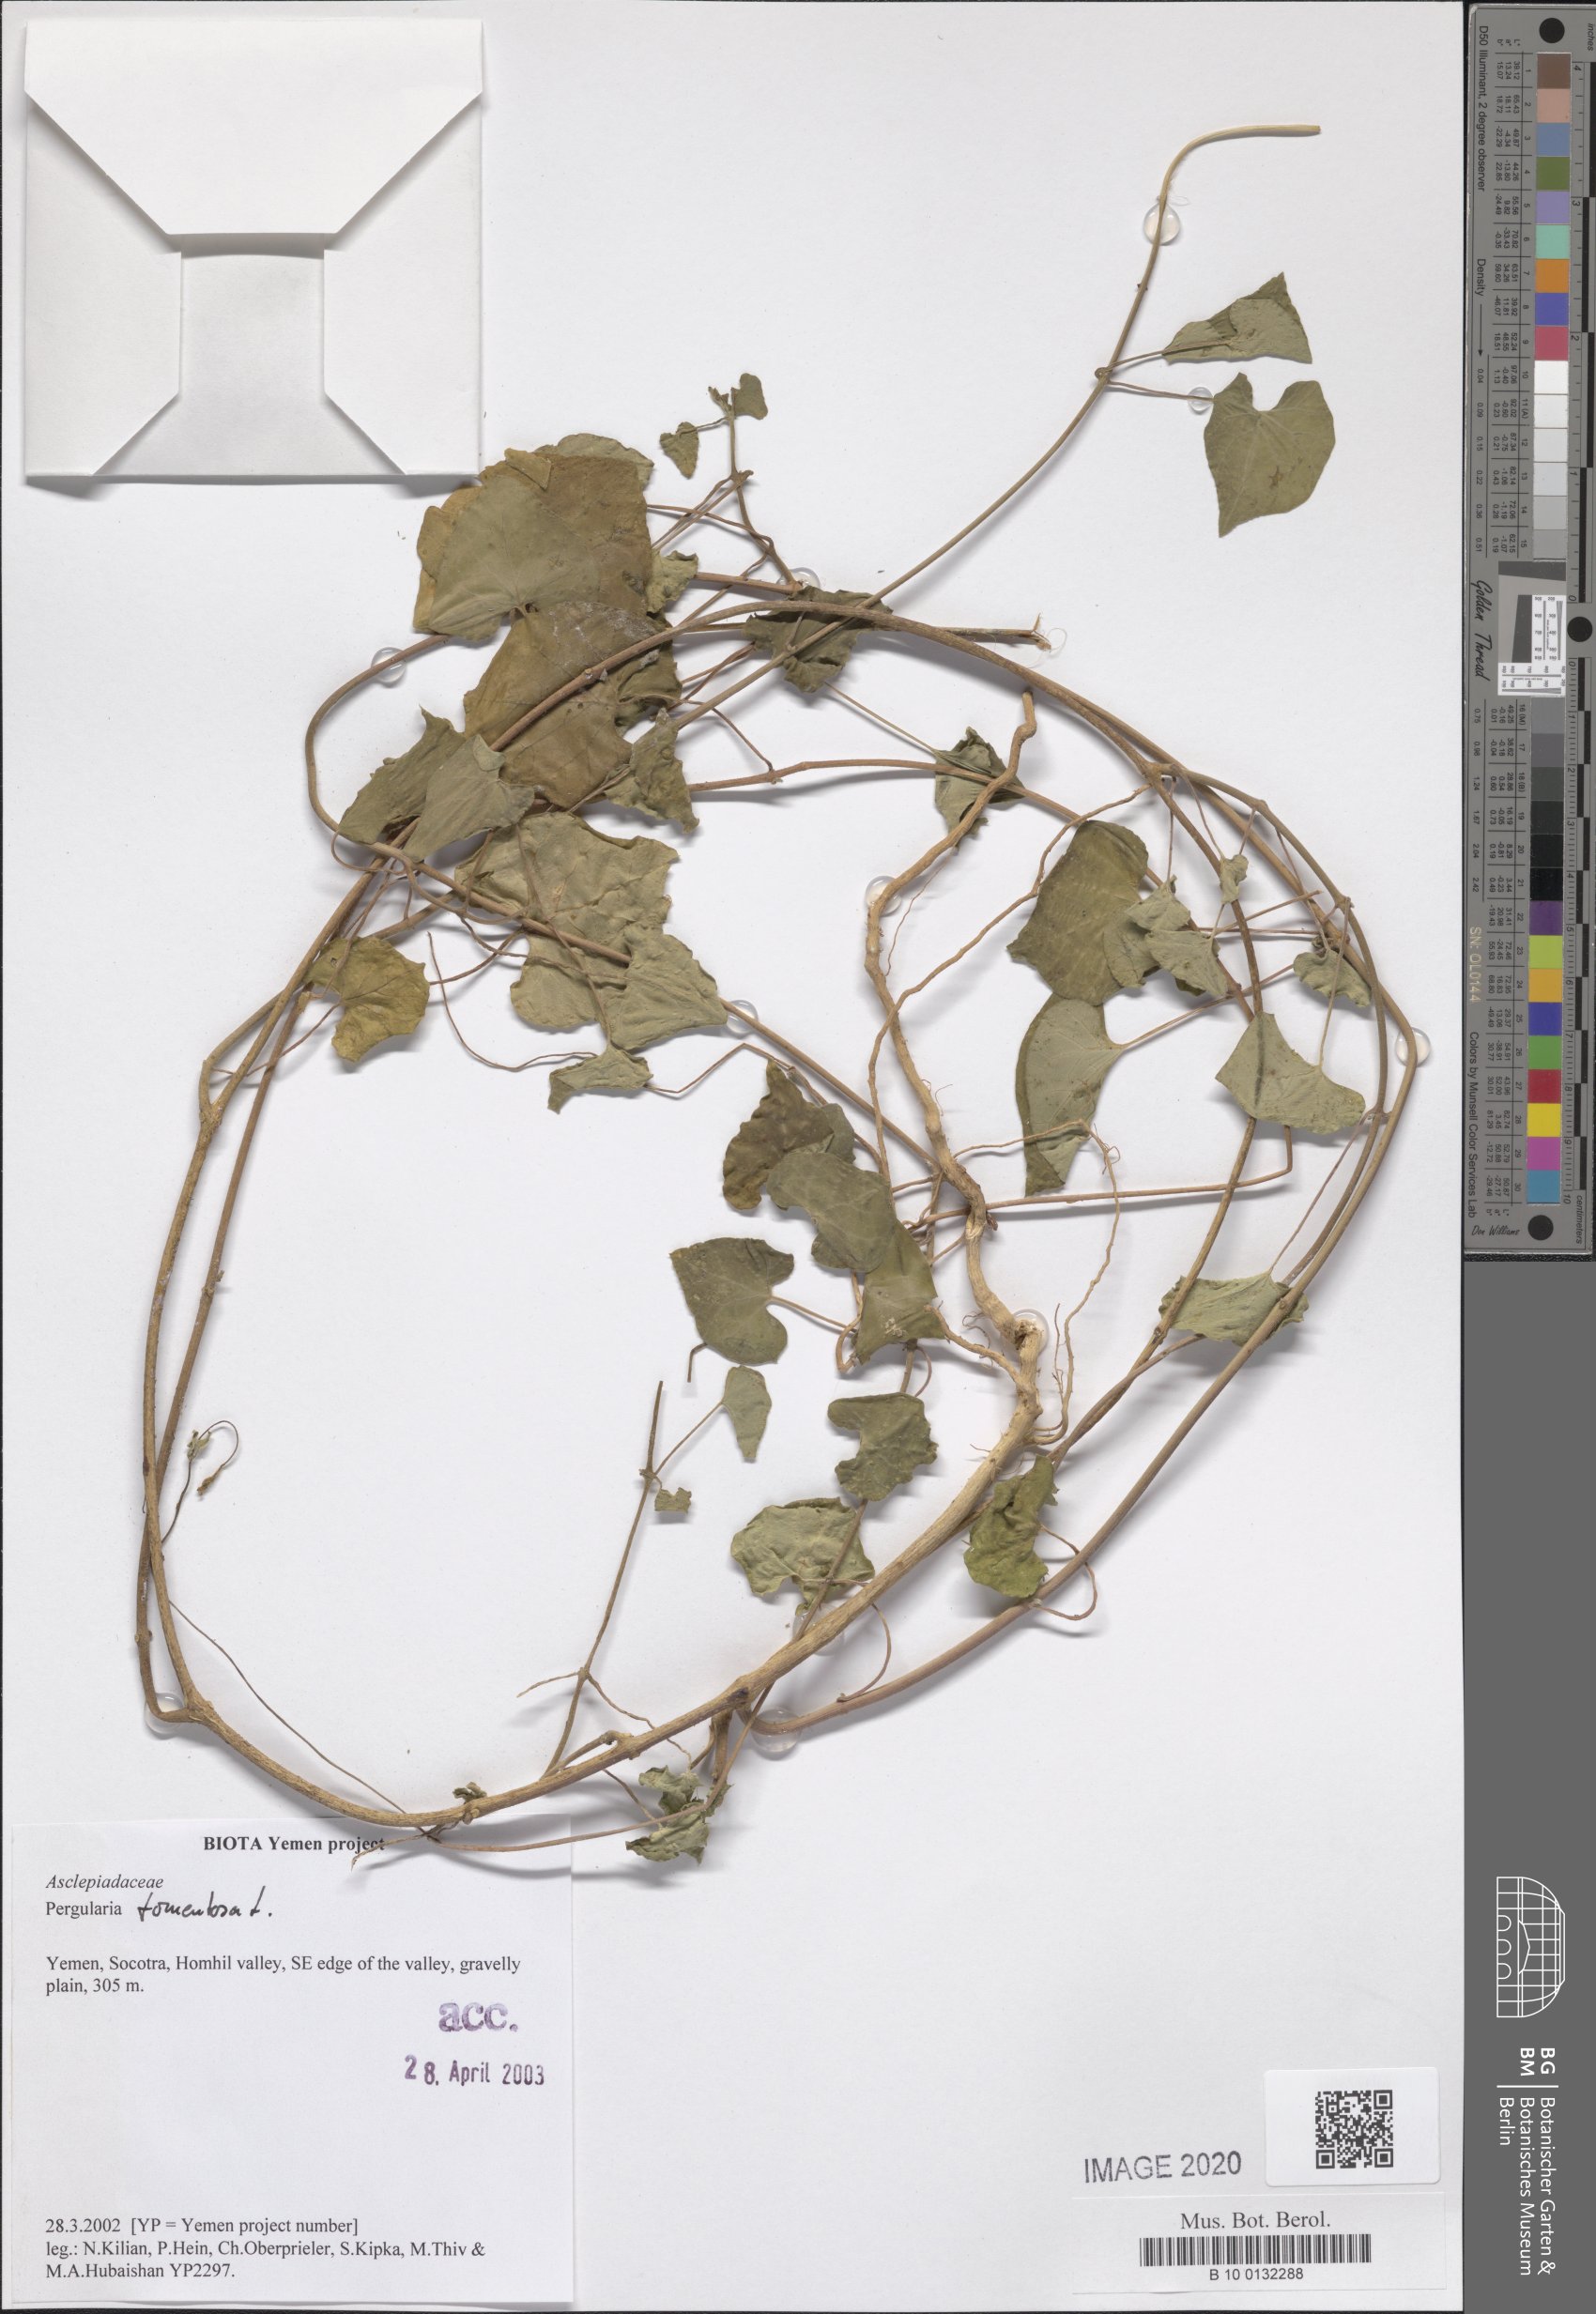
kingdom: Plantae
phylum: Tracheophyta
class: Magnoliopsida
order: Gentianales
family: Apocynaceae
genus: Pergularia
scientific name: Pergularia
